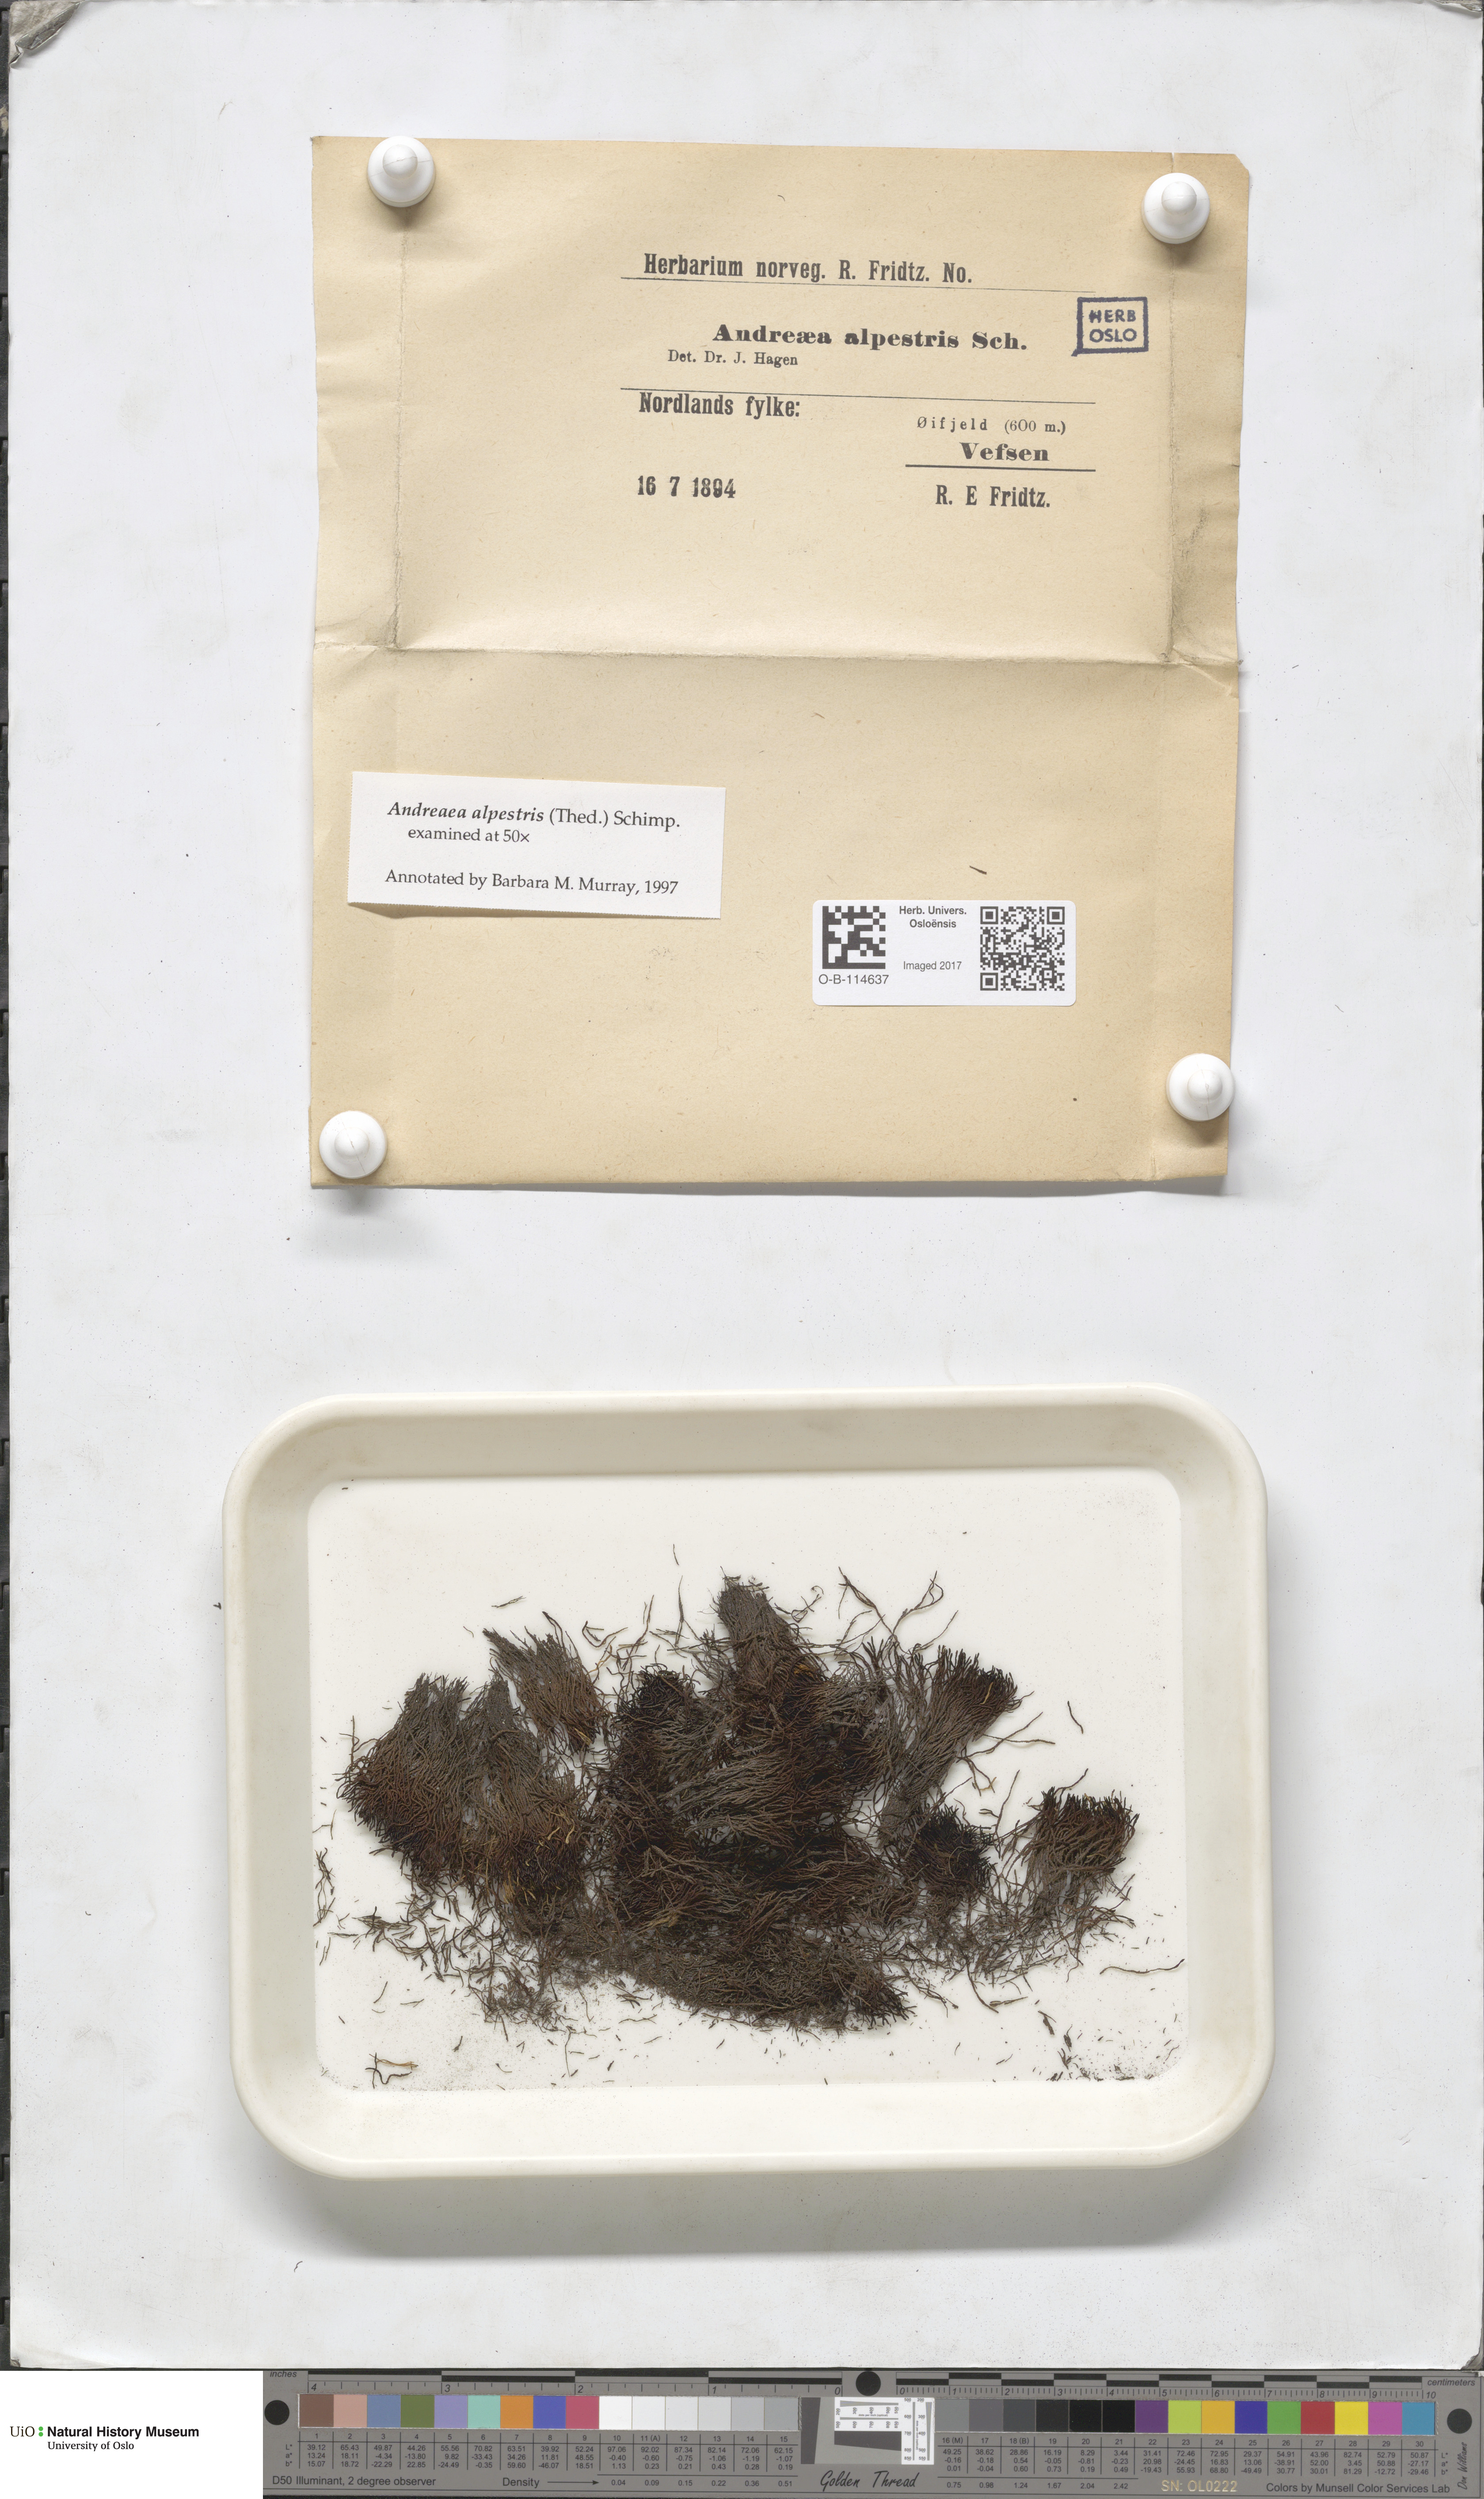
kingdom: Plantae
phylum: Bryophyta
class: Andreaeopsida
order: Andreaeales
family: Andreaeaceae
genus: Andreaea
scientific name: Andreaea alpestris
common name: Slender rock-moss
